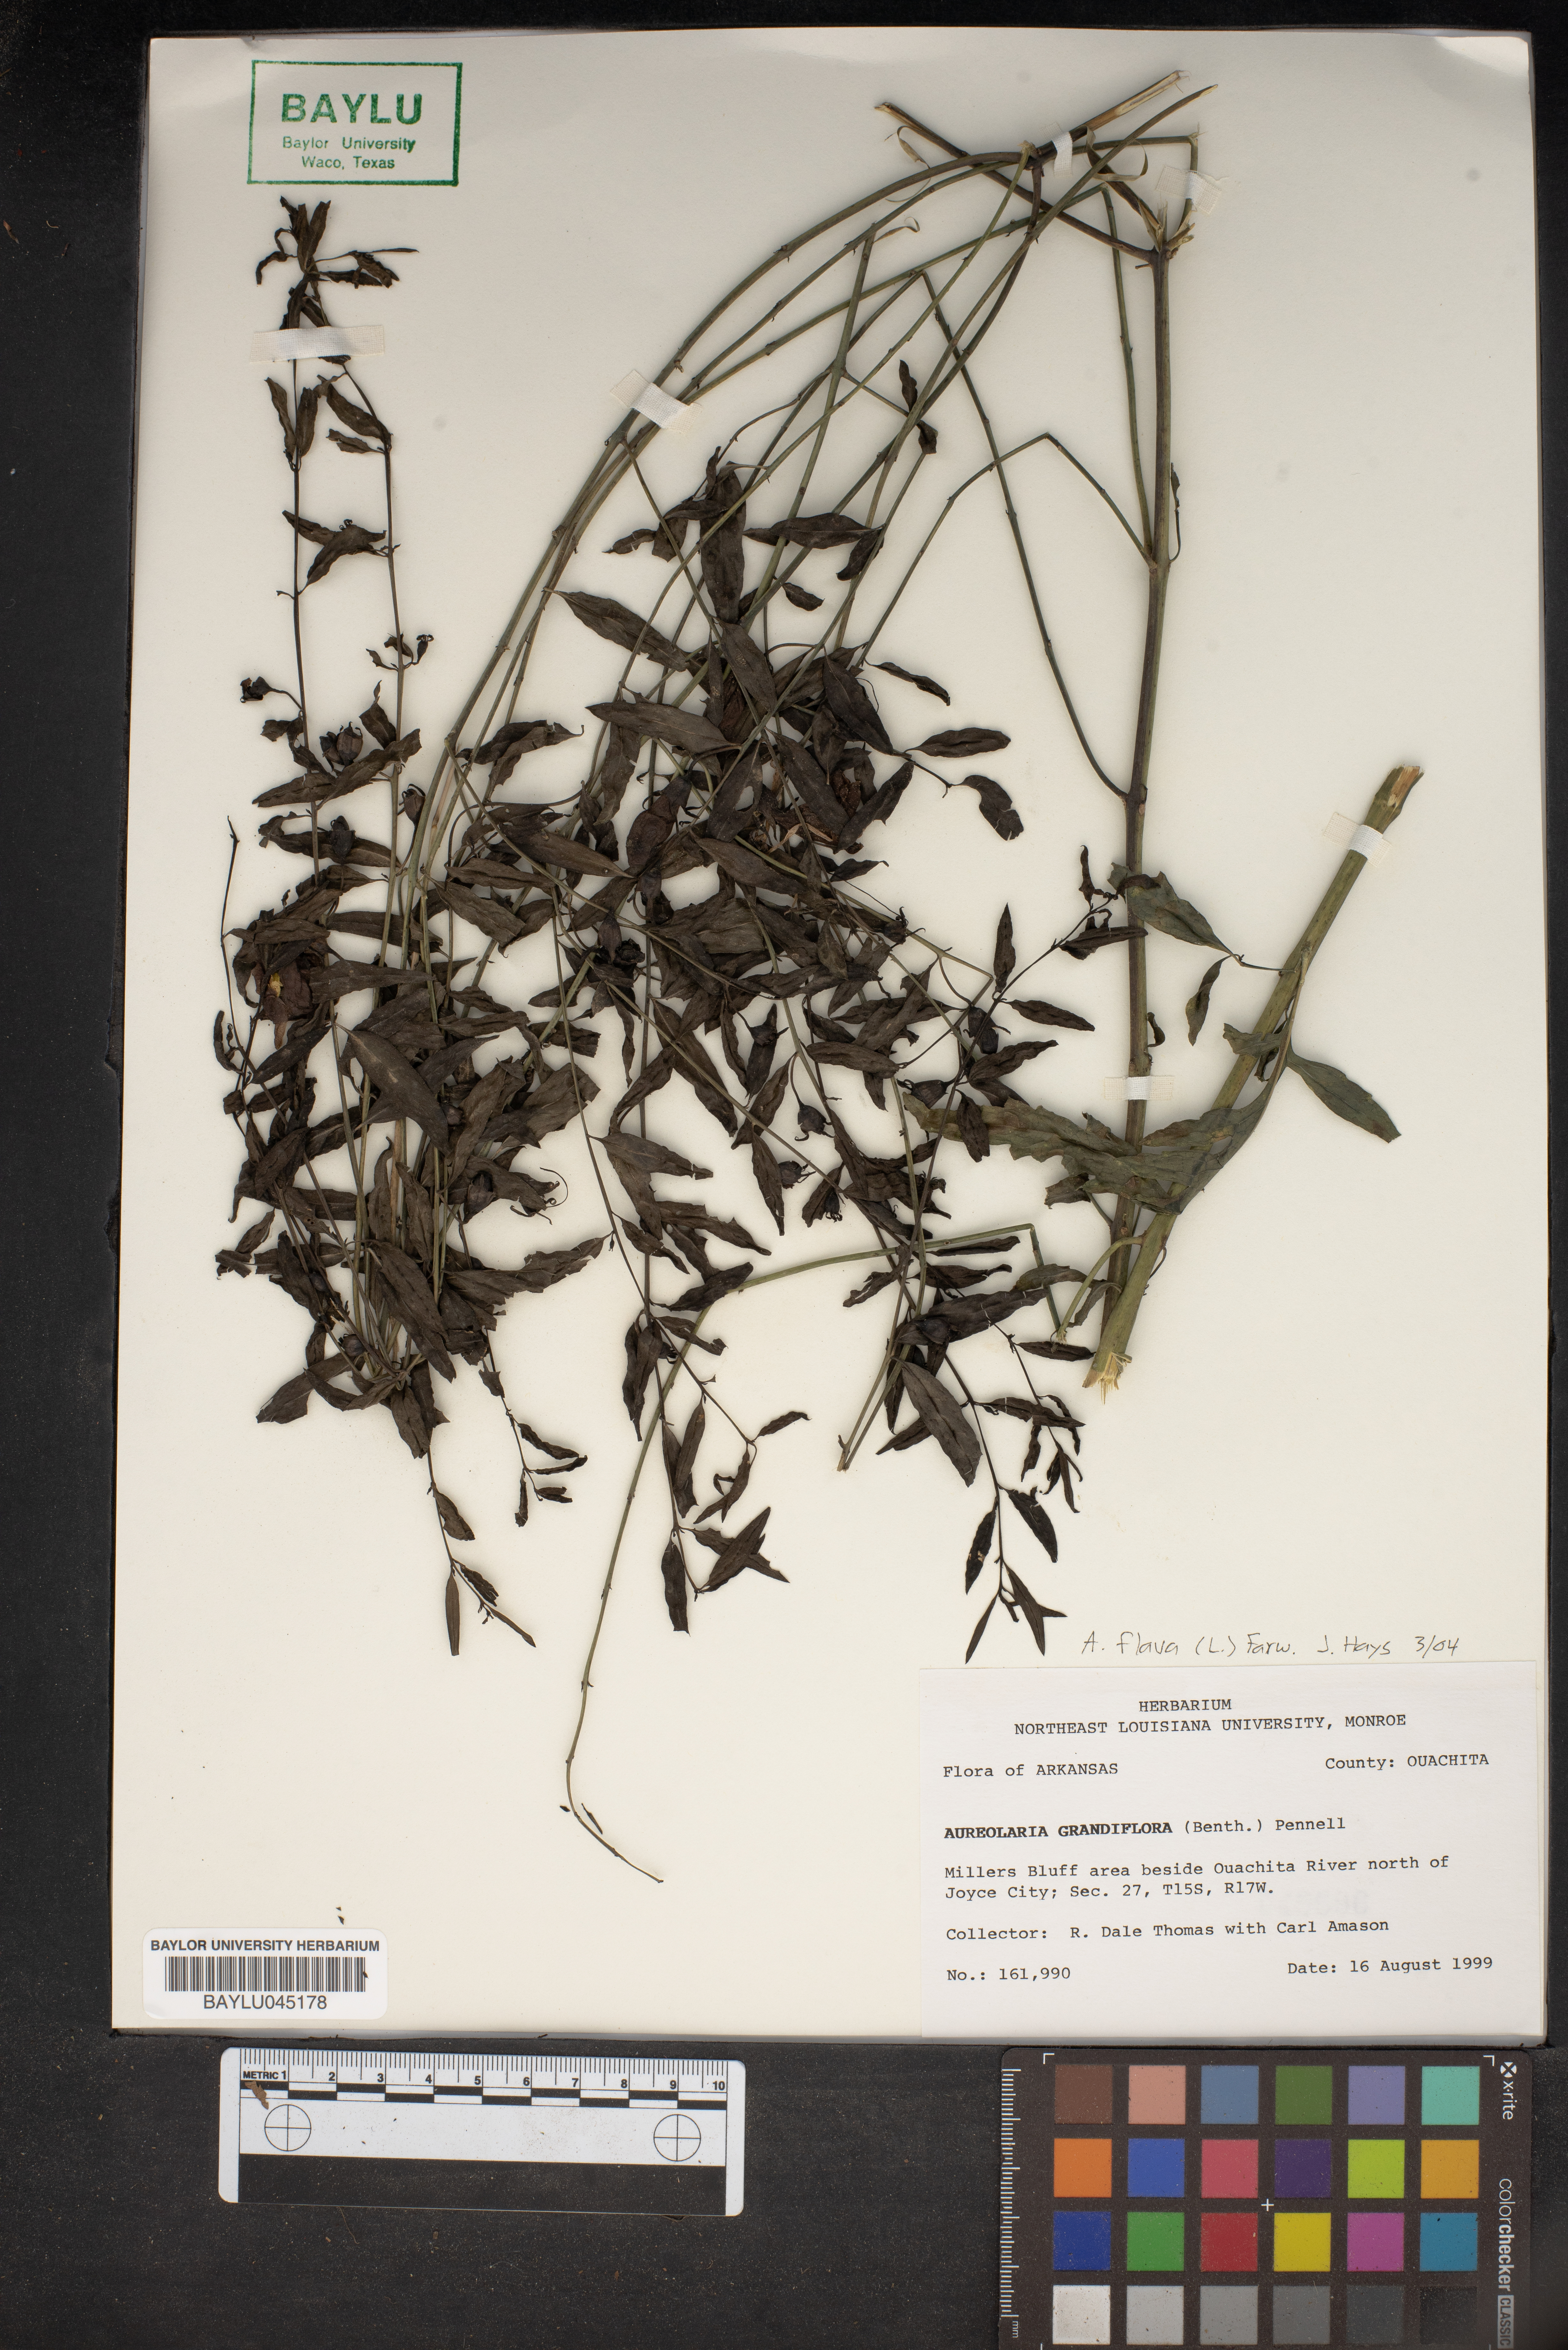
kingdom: Plantae
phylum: Tracheophyta
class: Magnoliopsida
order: Lamiales
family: Orobanchaceae
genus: Aureolaria
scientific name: Aureolaria grandiflora
